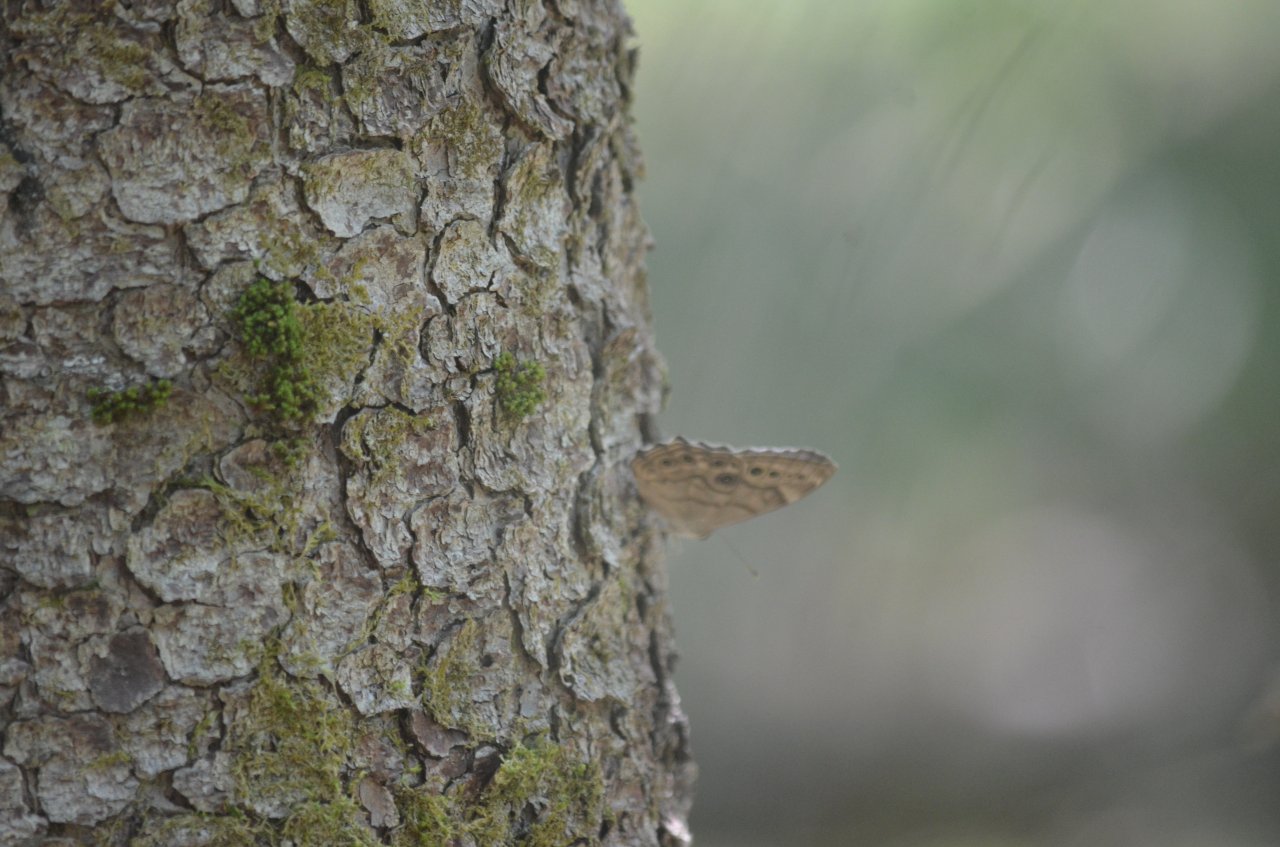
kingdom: Animalia
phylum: Arthropoda
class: Insecta
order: Lepidoptera
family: Nymphalidae
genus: Lethe
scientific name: Lethe anthedon
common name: Northern Pearly-Eye
